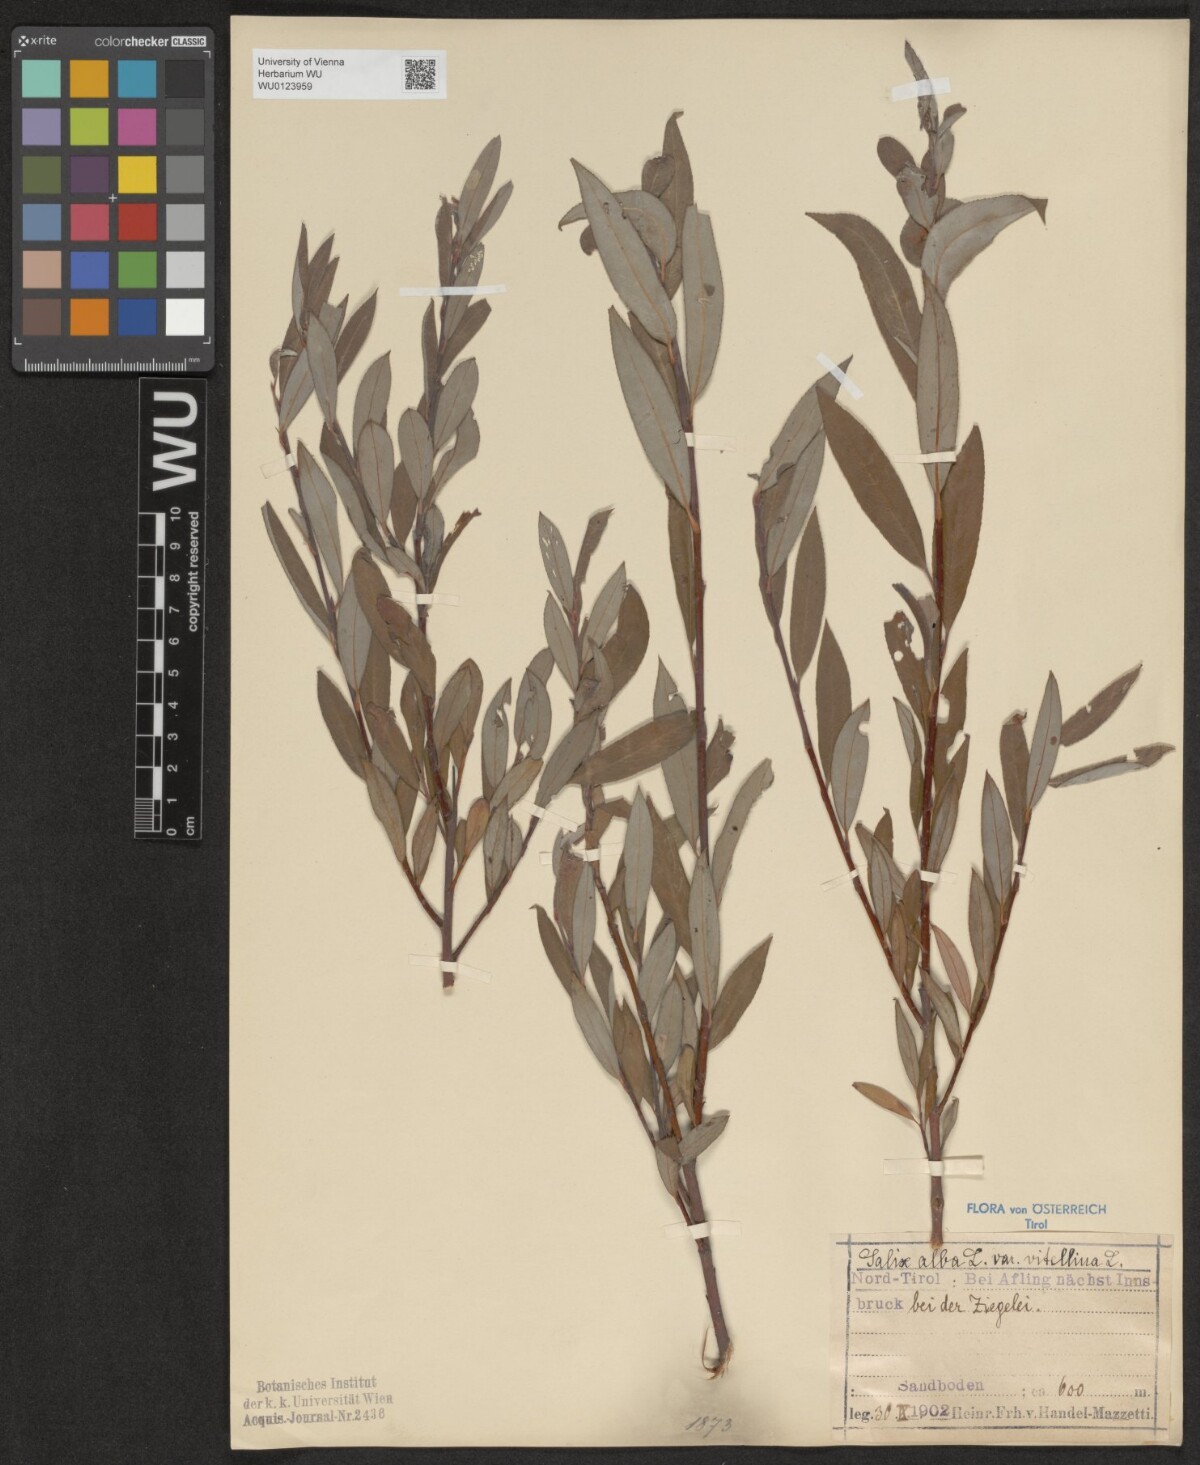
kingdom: Plantae
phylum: Tracheophyta
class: Magnoliopsida
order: Malpighiales
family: Salicaceae
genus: Salix
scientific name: Salix alba
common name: White willow
